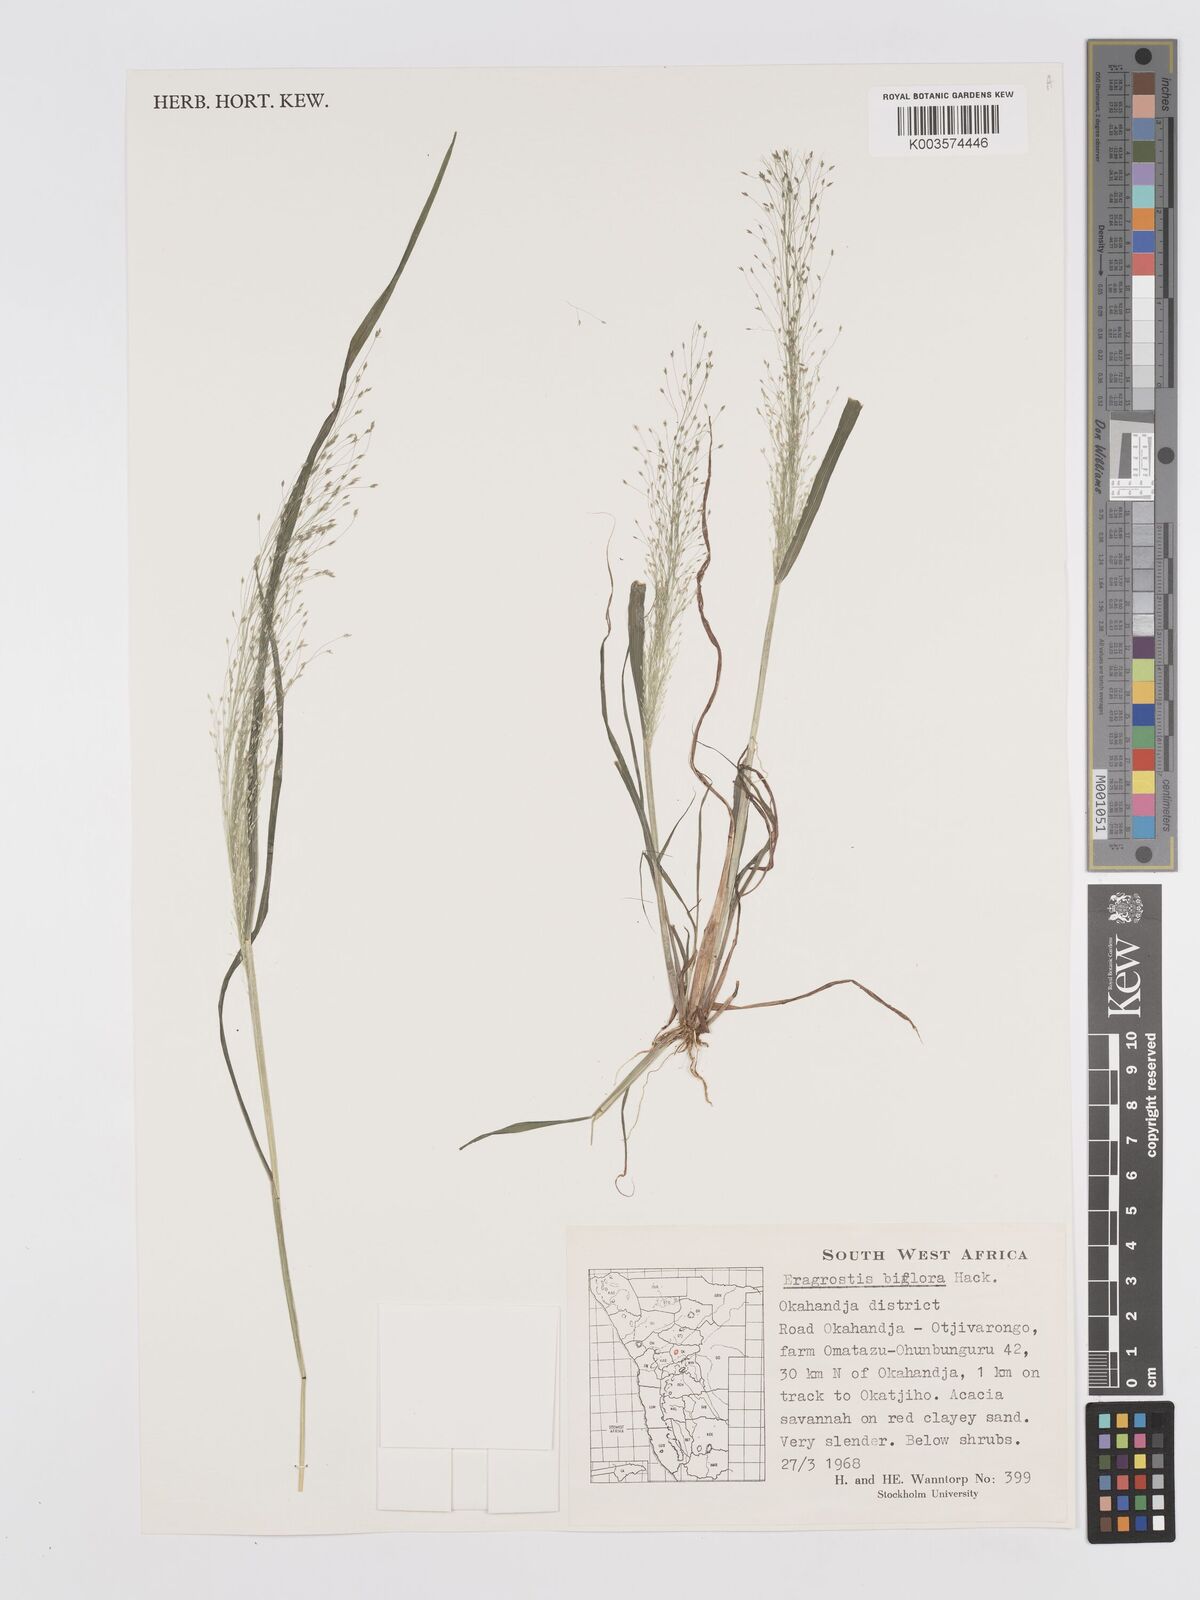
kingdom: Plantae
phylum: Tracheophyta
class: Liliopsida
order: Poales
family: Poaceae
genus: Eragrostis
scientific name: Eragrostis biflora
